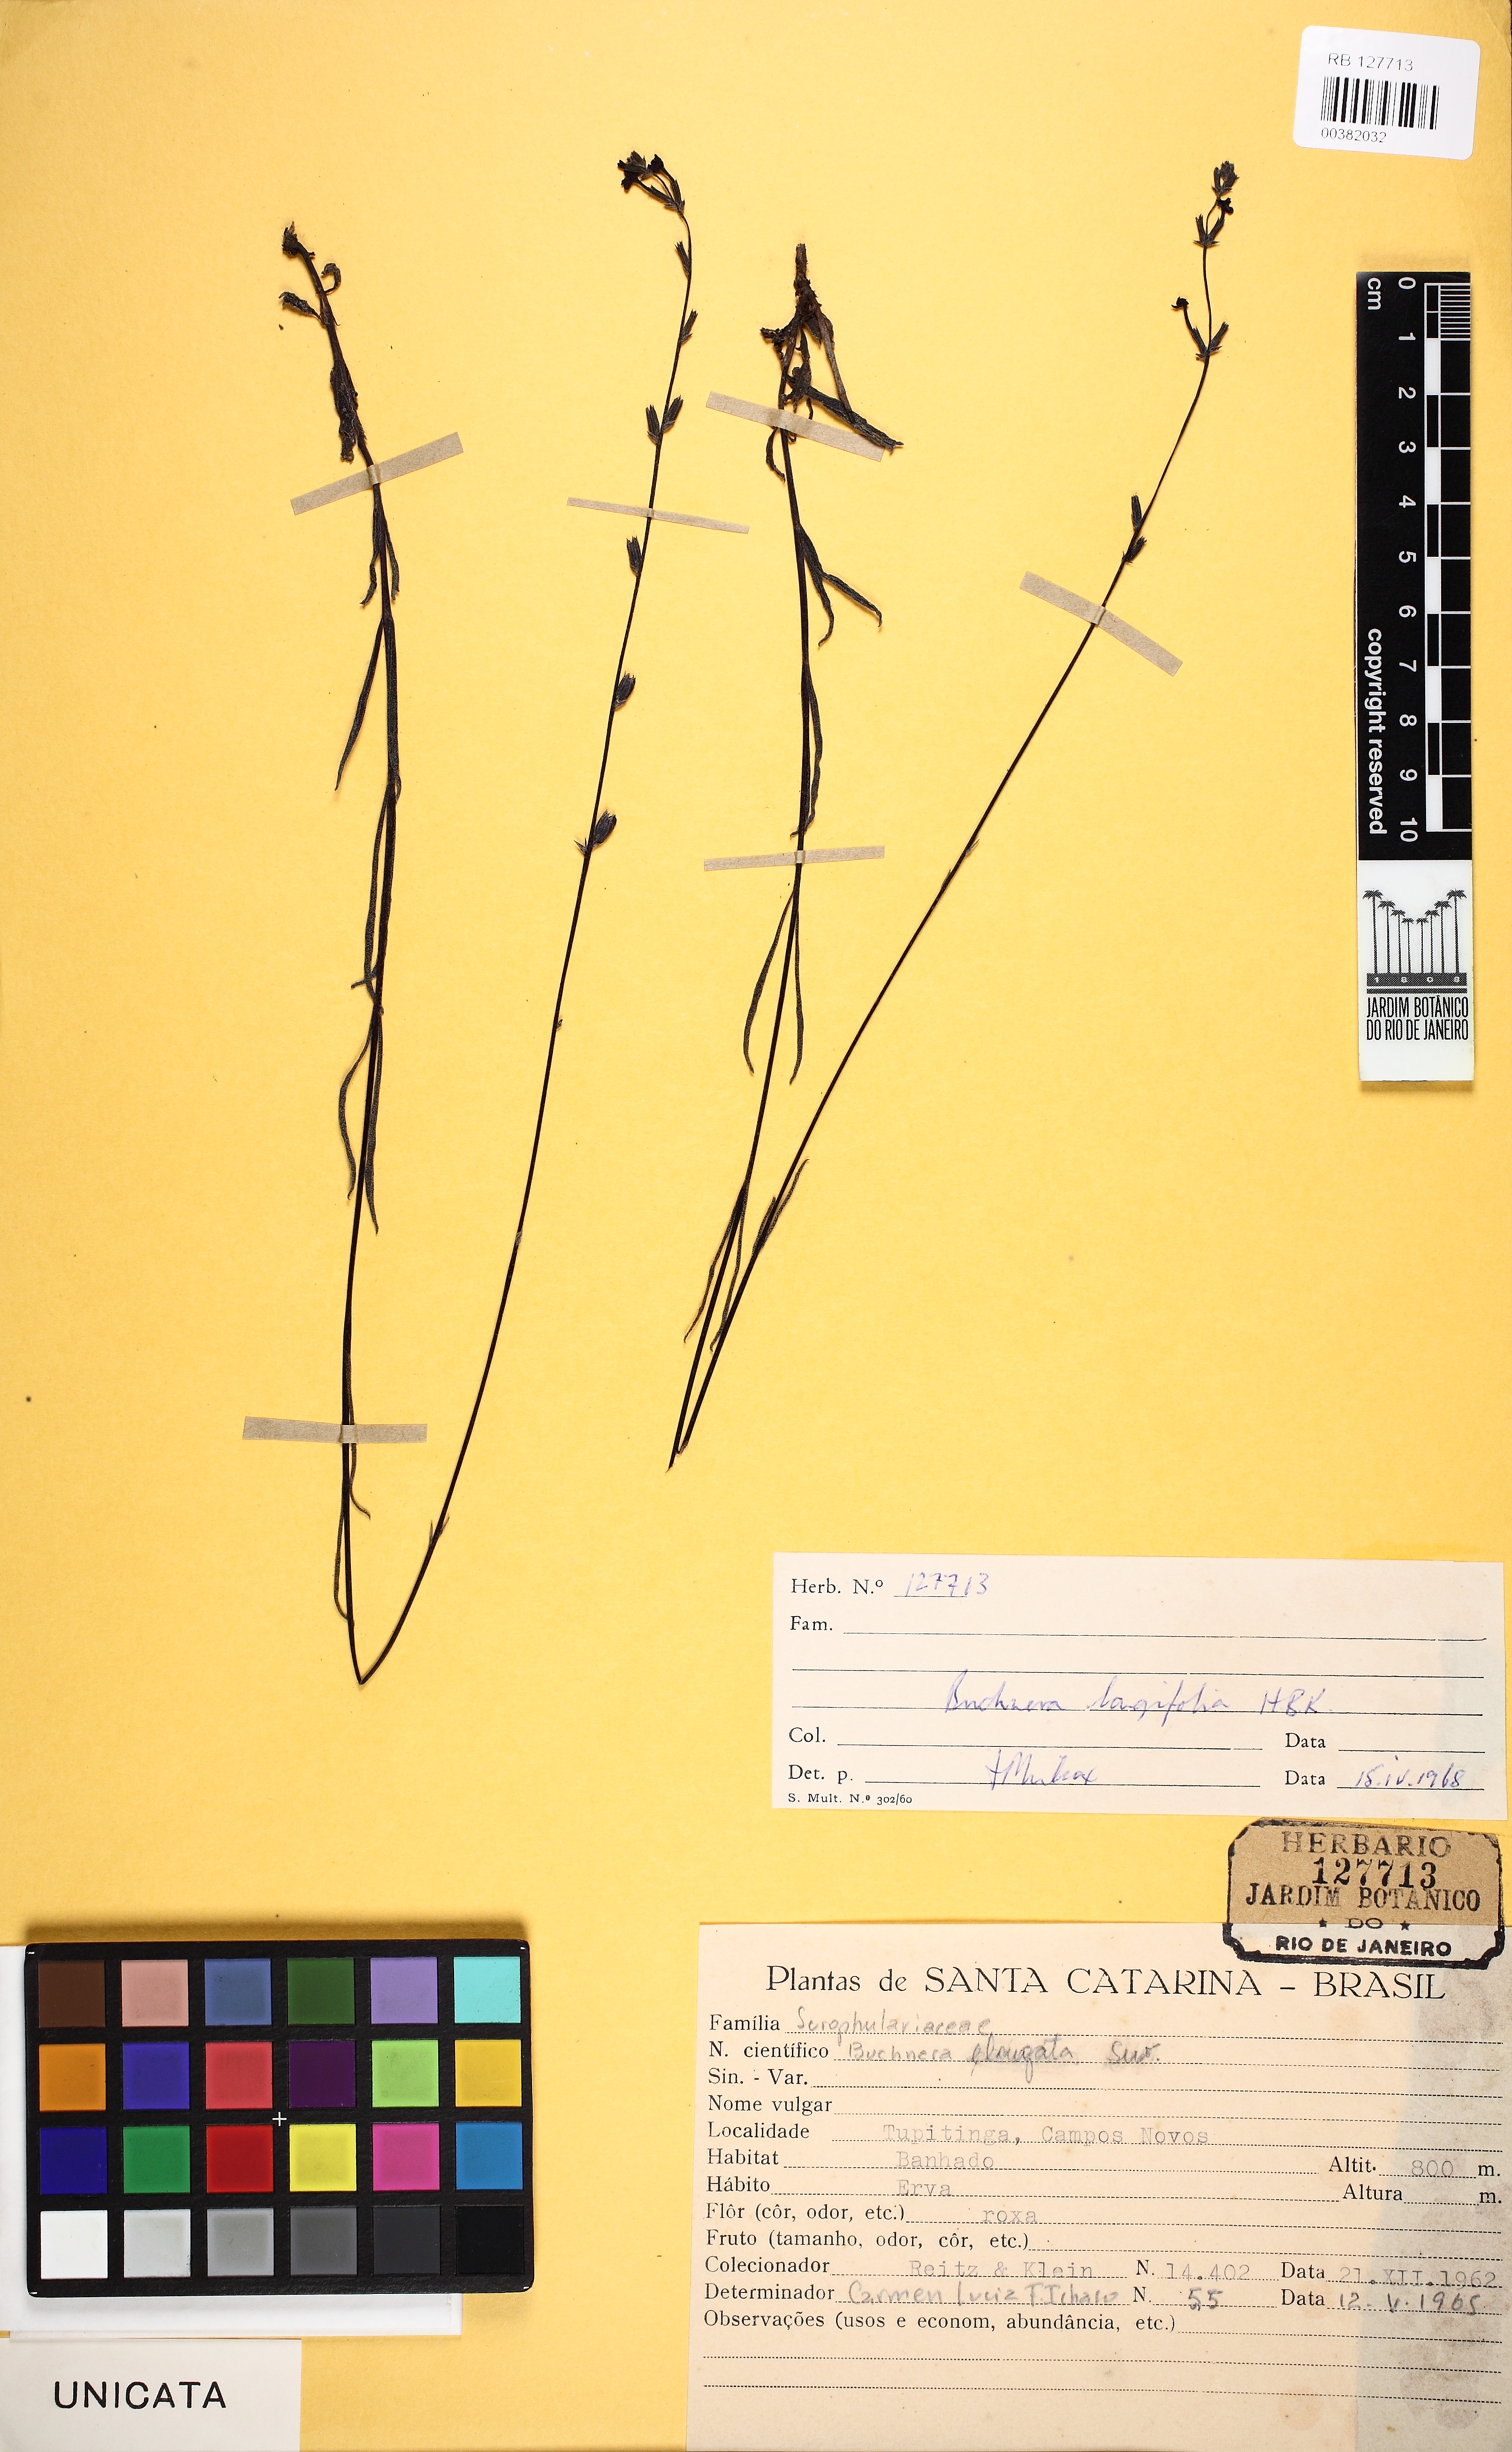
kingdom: Plantae
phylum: Tracheophyta
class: Magnoliopsida
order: Lamiales
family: Orobanchaceae
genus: Buchnera
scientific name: Buchnera longifolia
